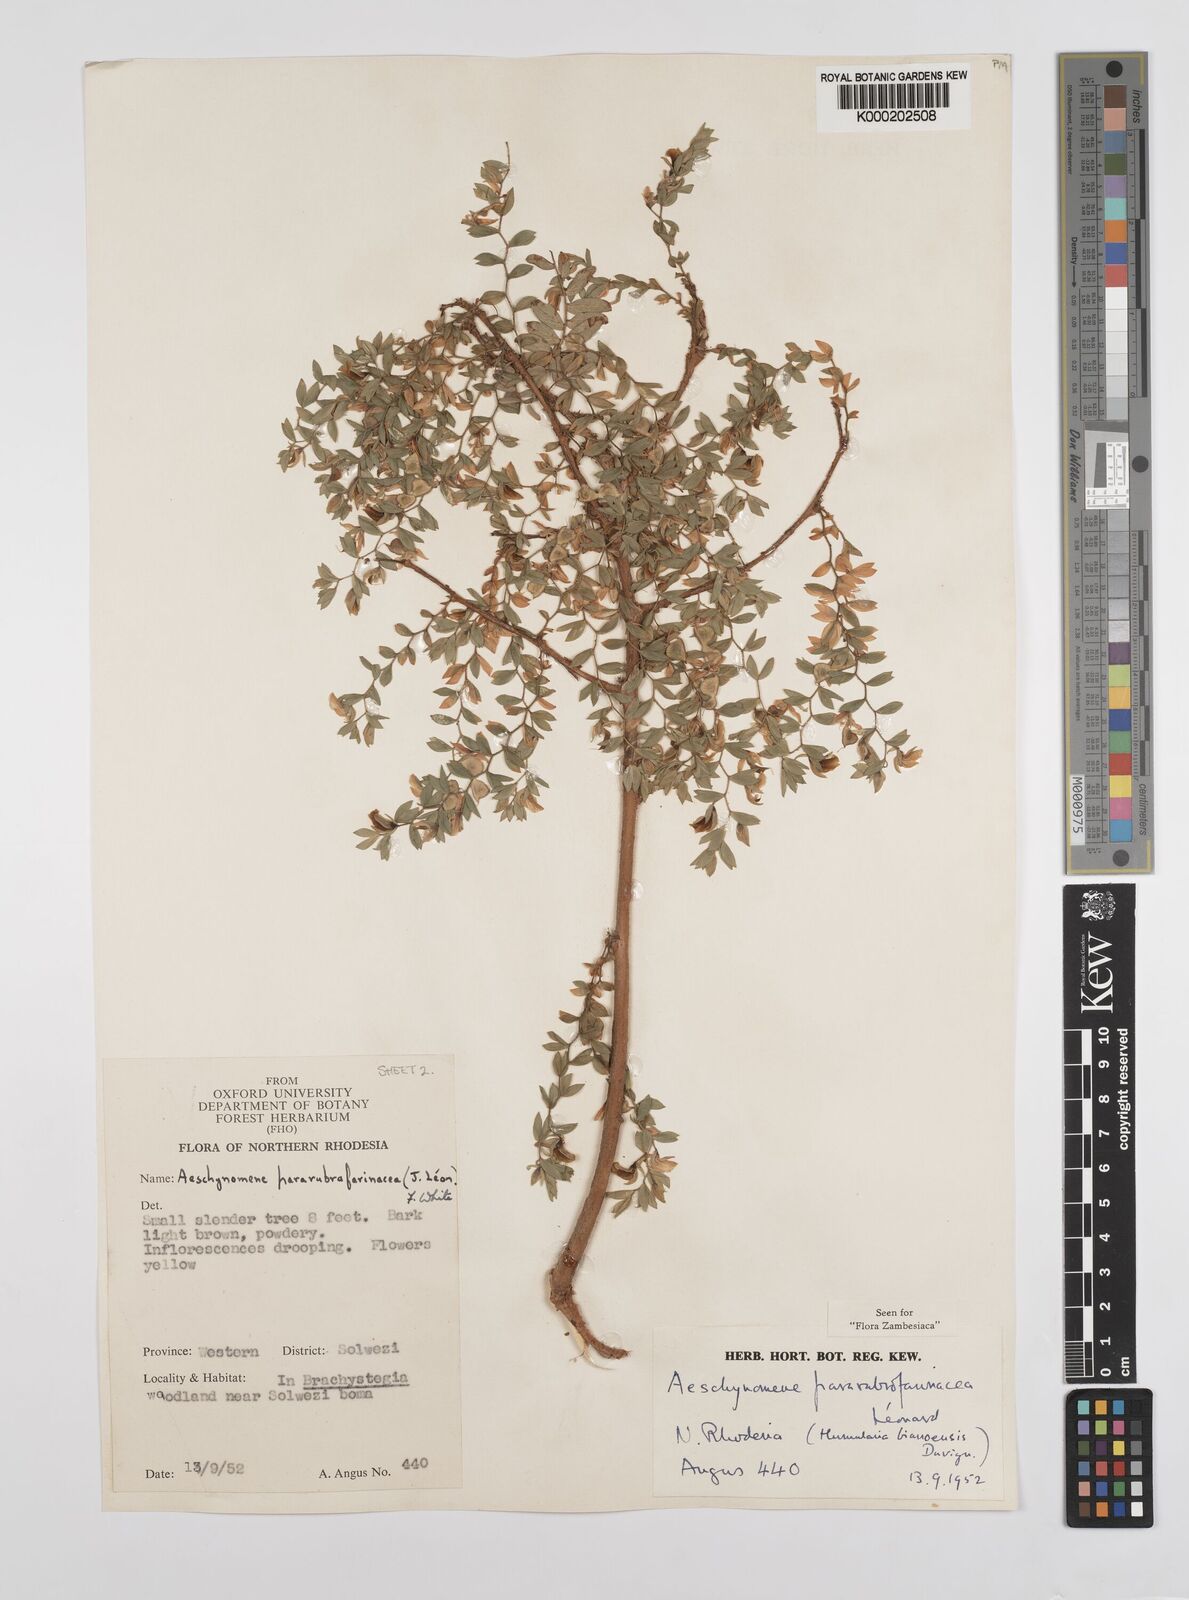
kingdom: Plantae
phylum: Tracheophyta
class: Magnoliopsida
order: Fabales
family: Fabaceae
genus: Aeschynomene
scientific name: Aeschynomene pararubrofarinacea
